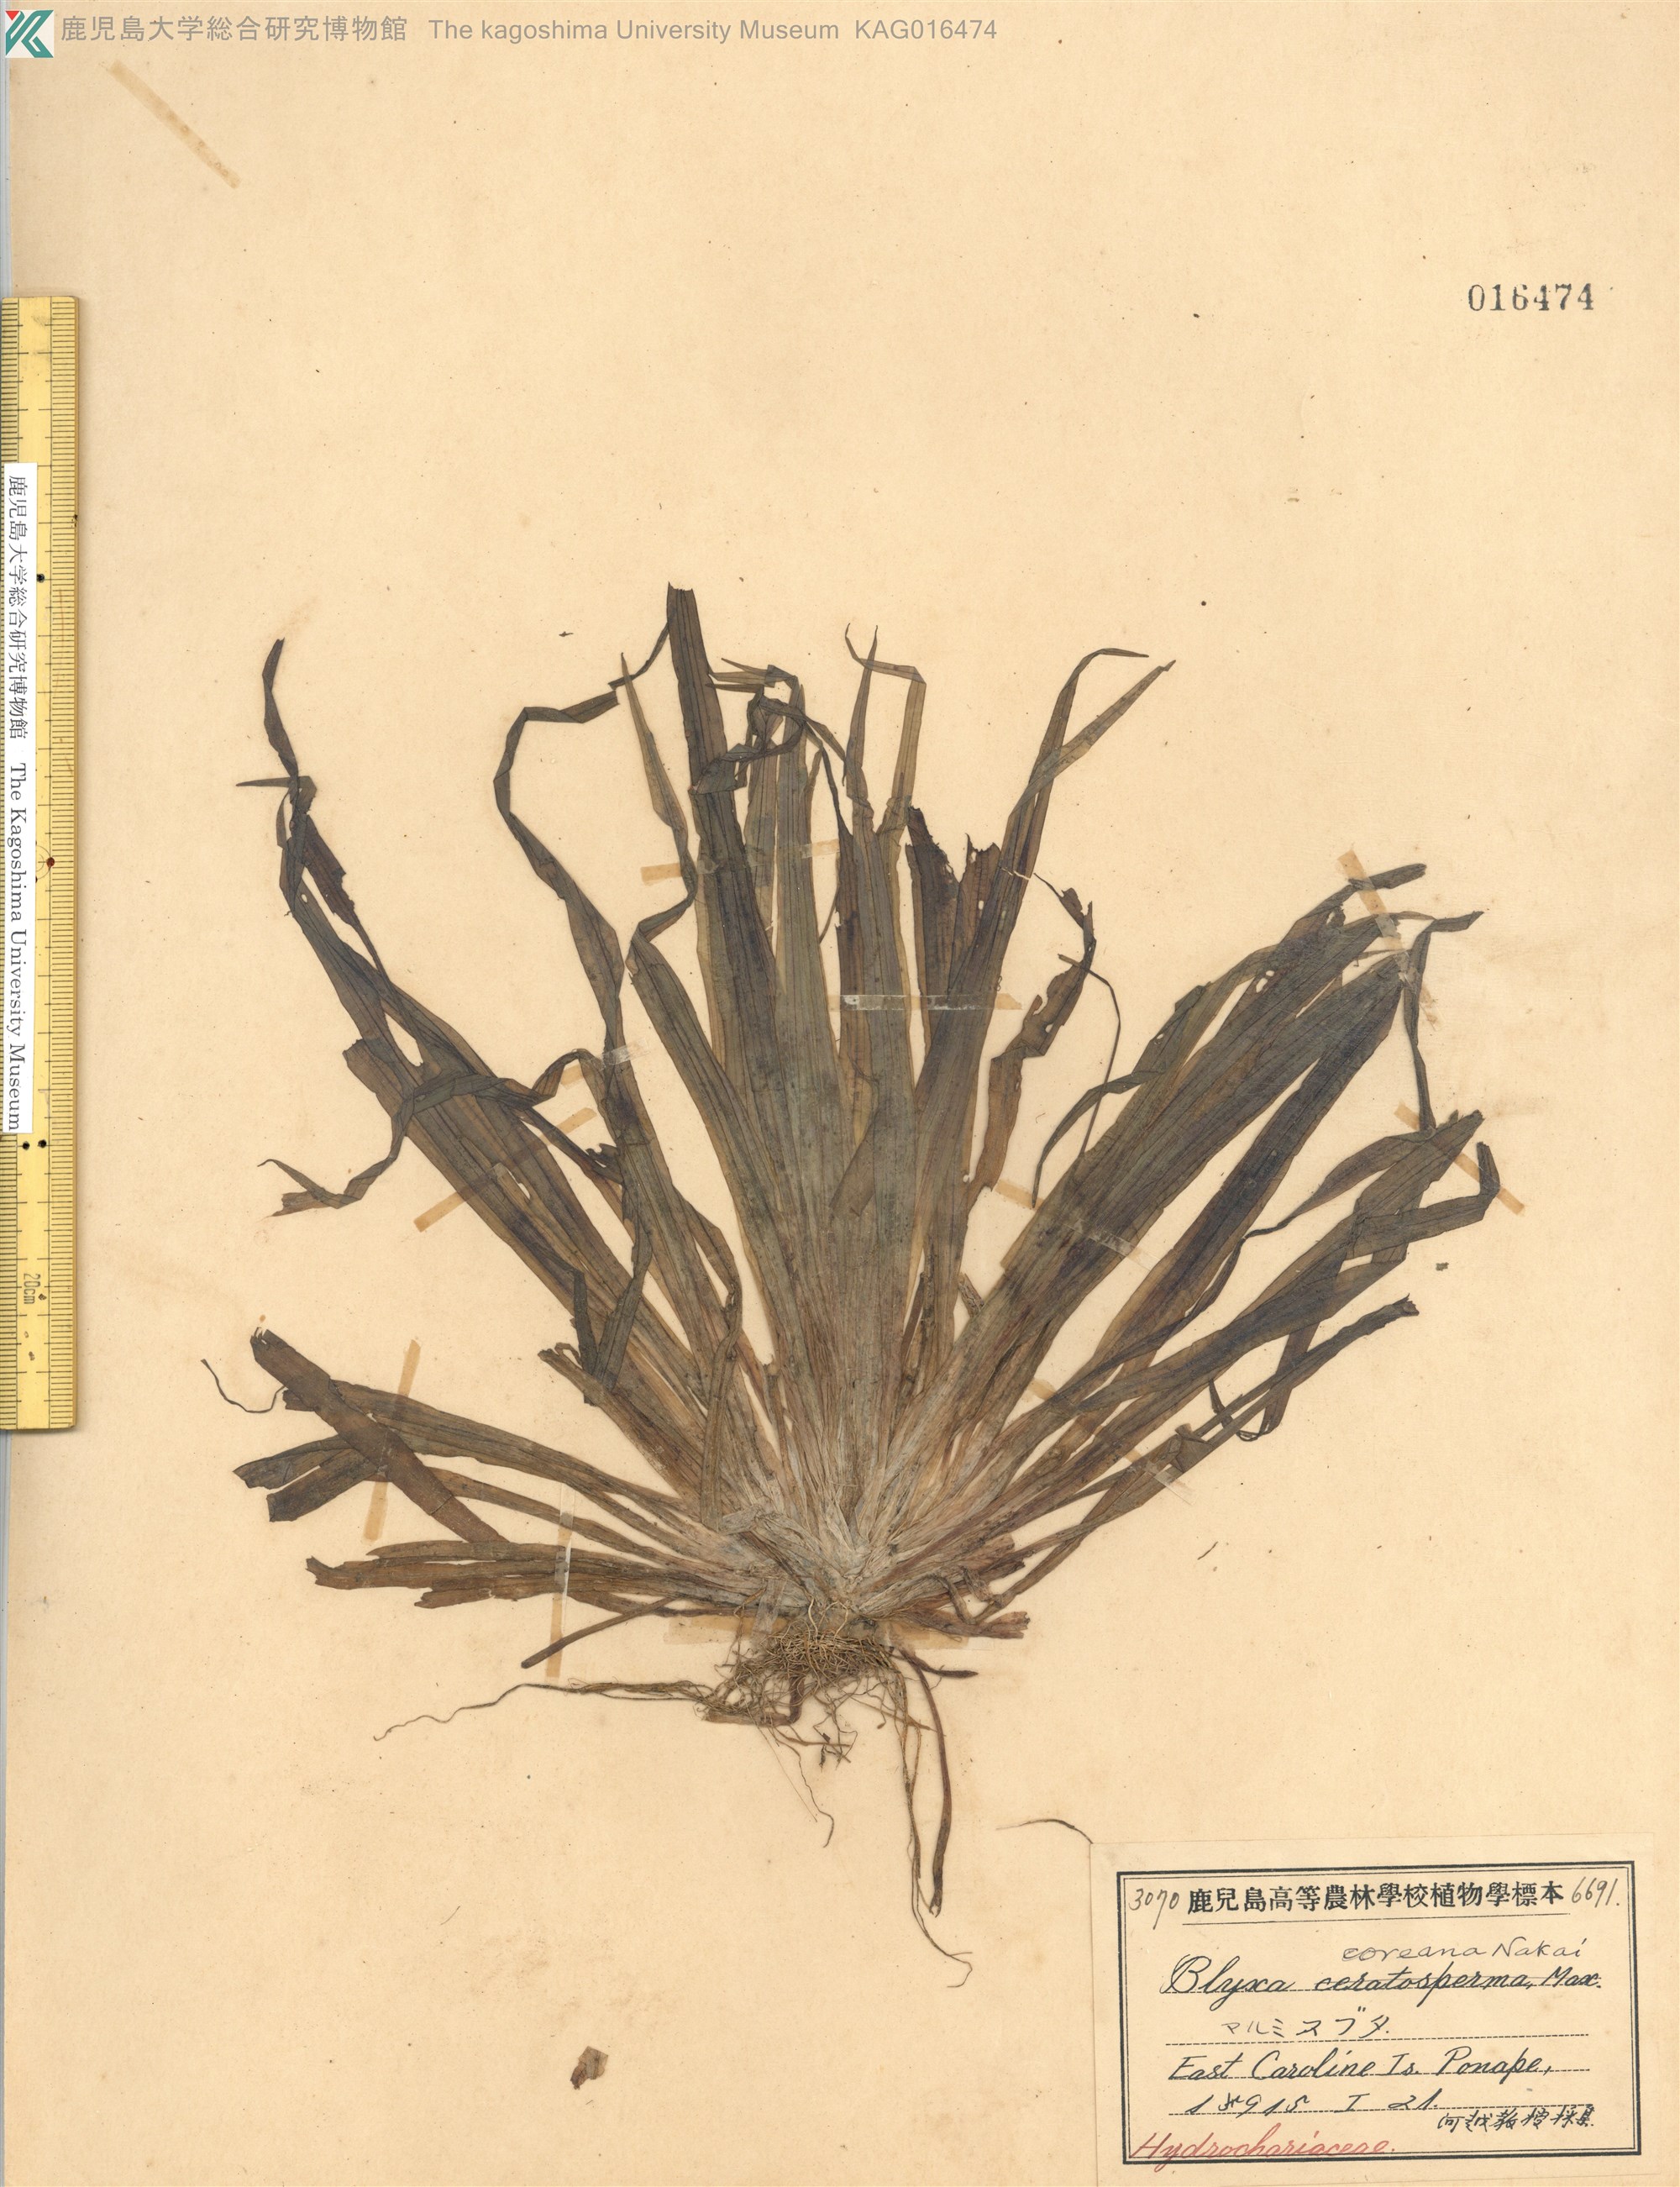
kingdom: Plantae
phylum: Tracheophyta
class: Liliopsida
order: Alismatales
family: Hydrocharitaceae
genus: Blyxa
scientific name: Blyxa aubertii
